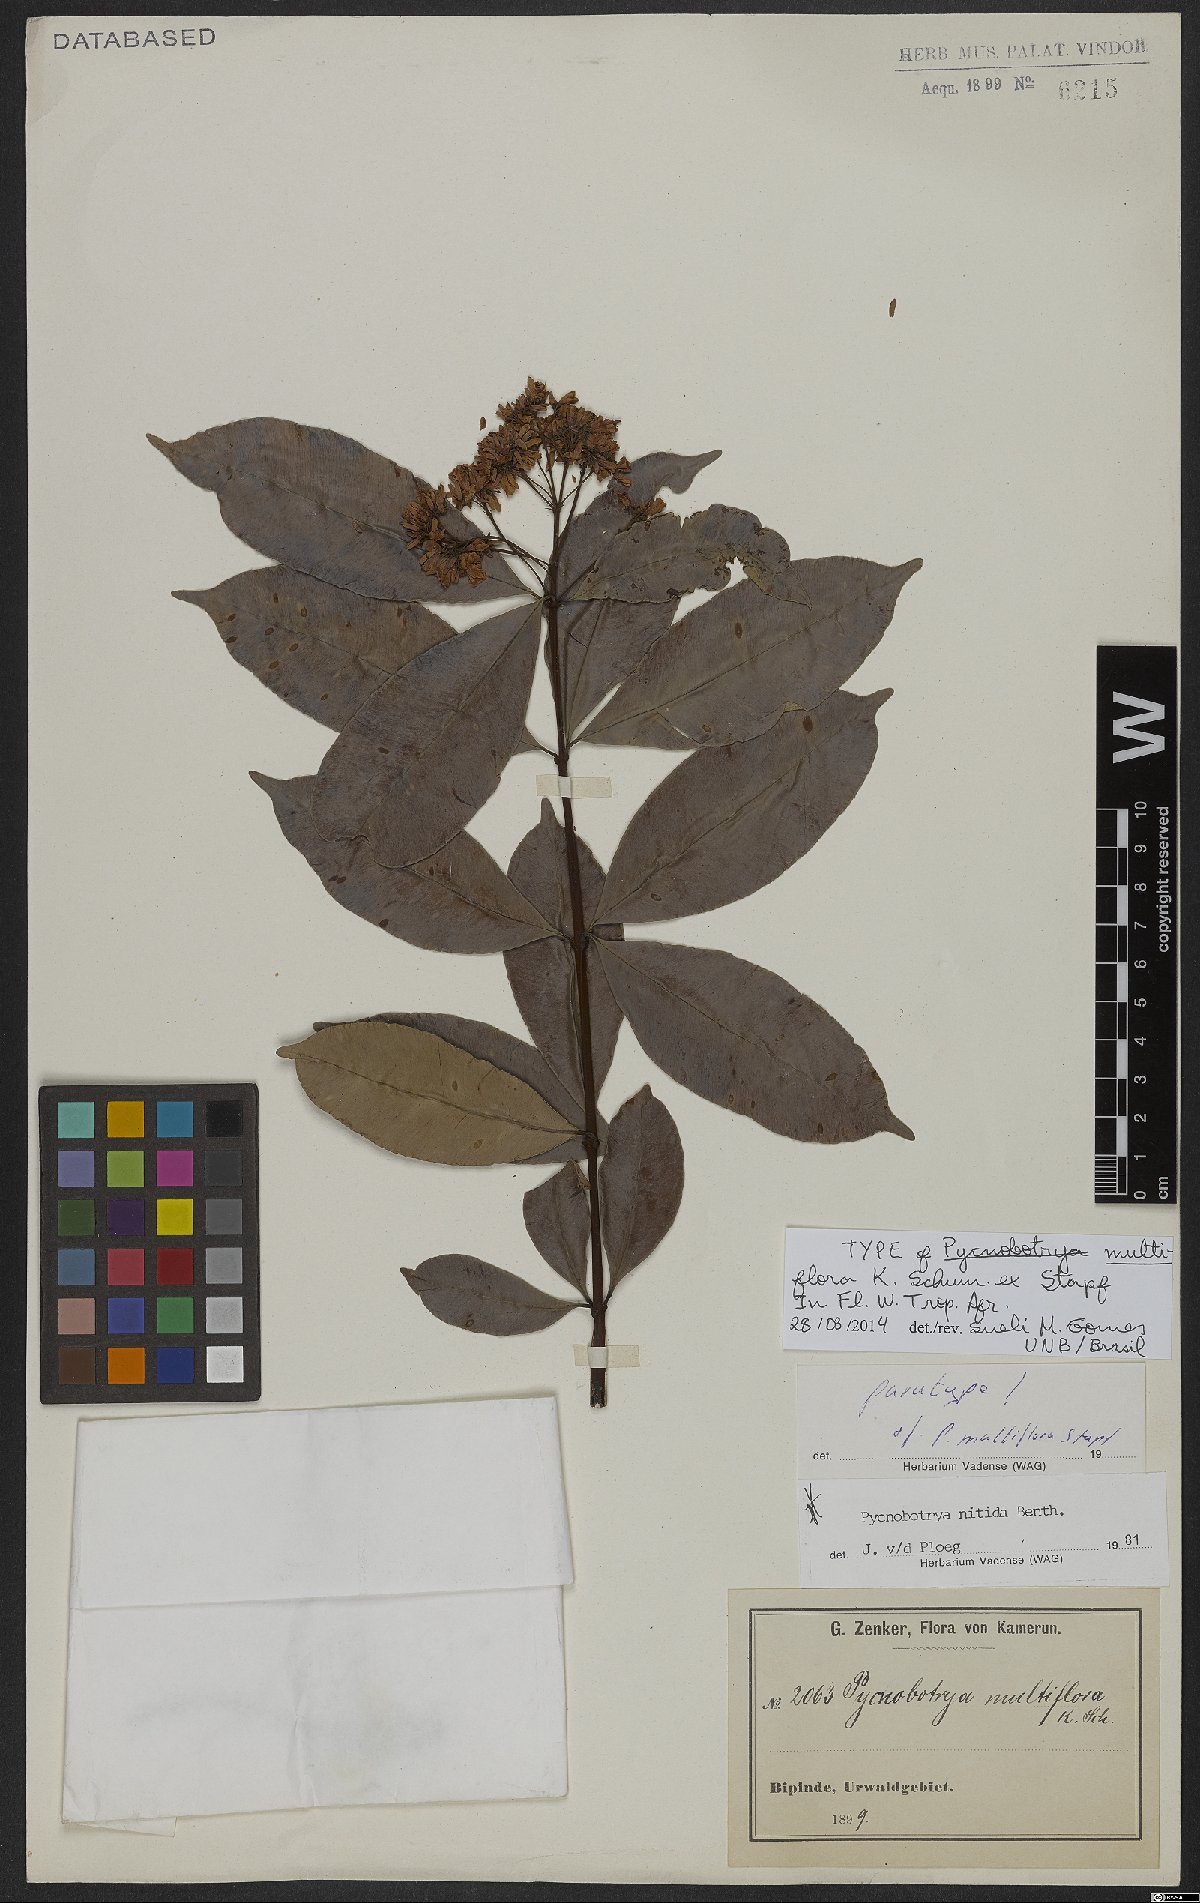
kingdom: Plantae
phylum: Tracheophyta
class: Magnoliopsida
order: Gentianales
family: Apocynaceae
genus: Pycnobotrya
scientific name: Pycnobotrya nitida
